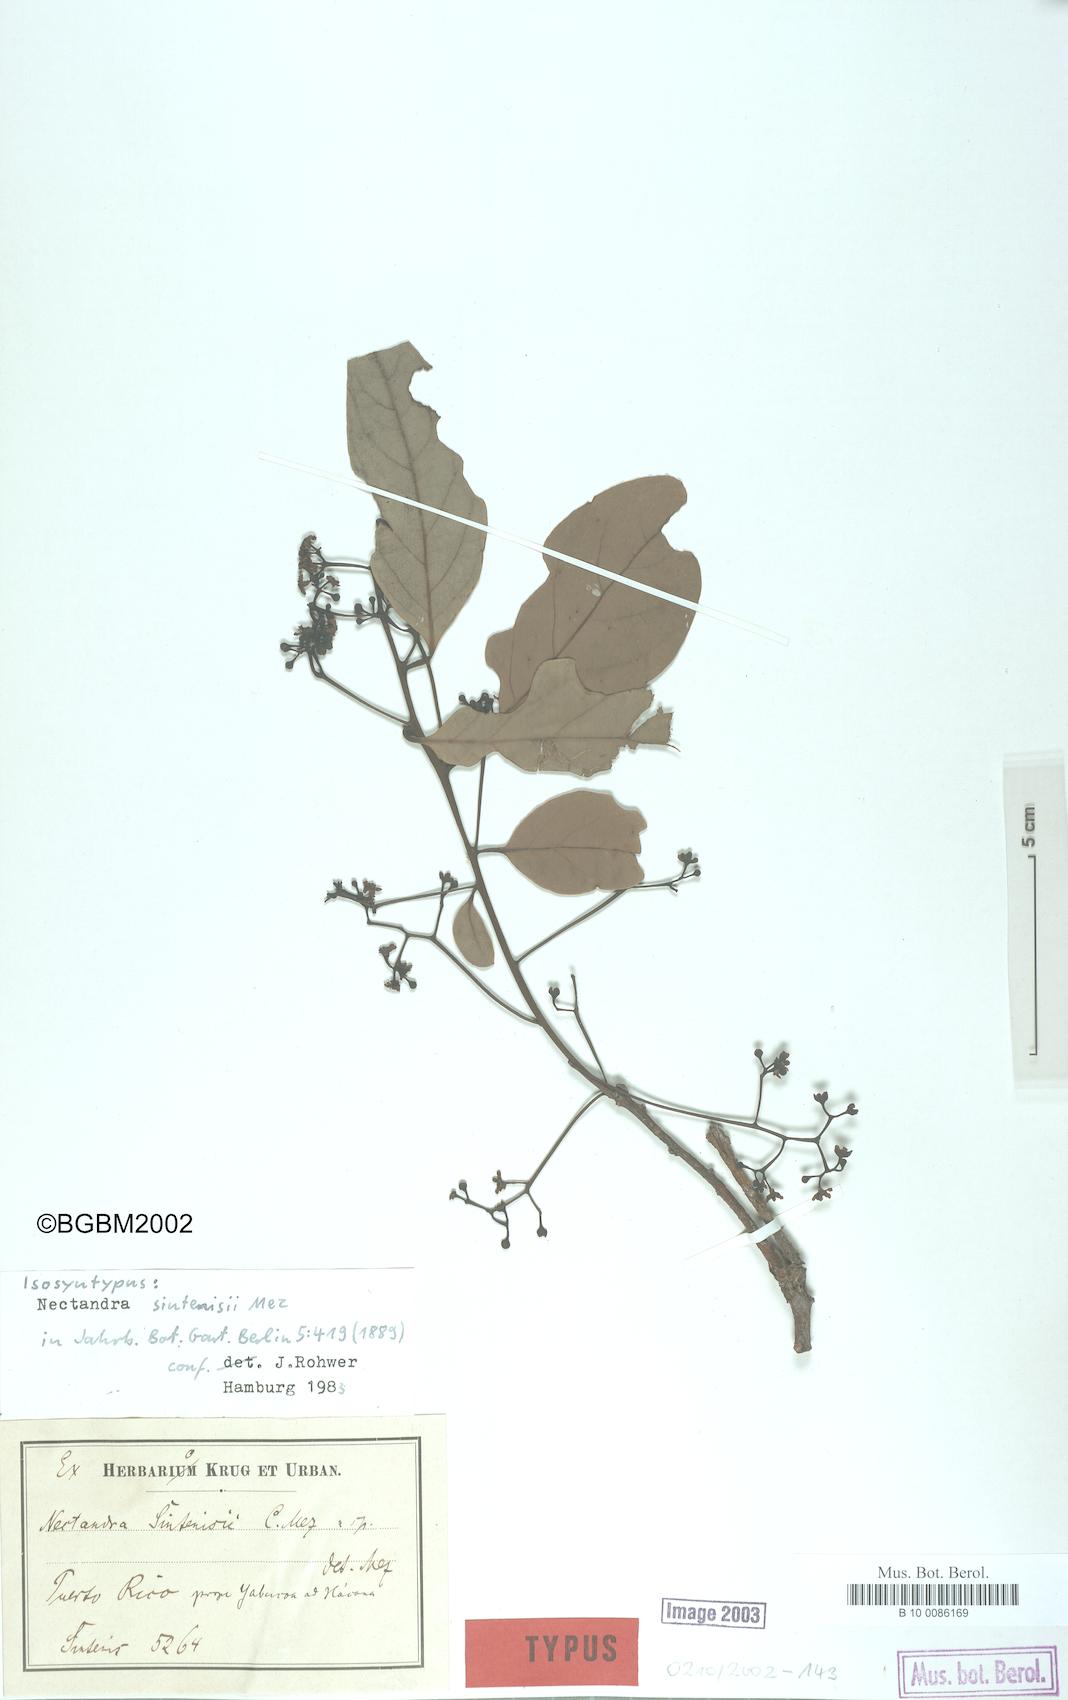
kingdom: Plantae
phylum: Tracheophyta
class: Magnoliopsida
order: Laurales
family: Lauraceae
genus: Nectandra
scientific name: Nectandra turbacensis
